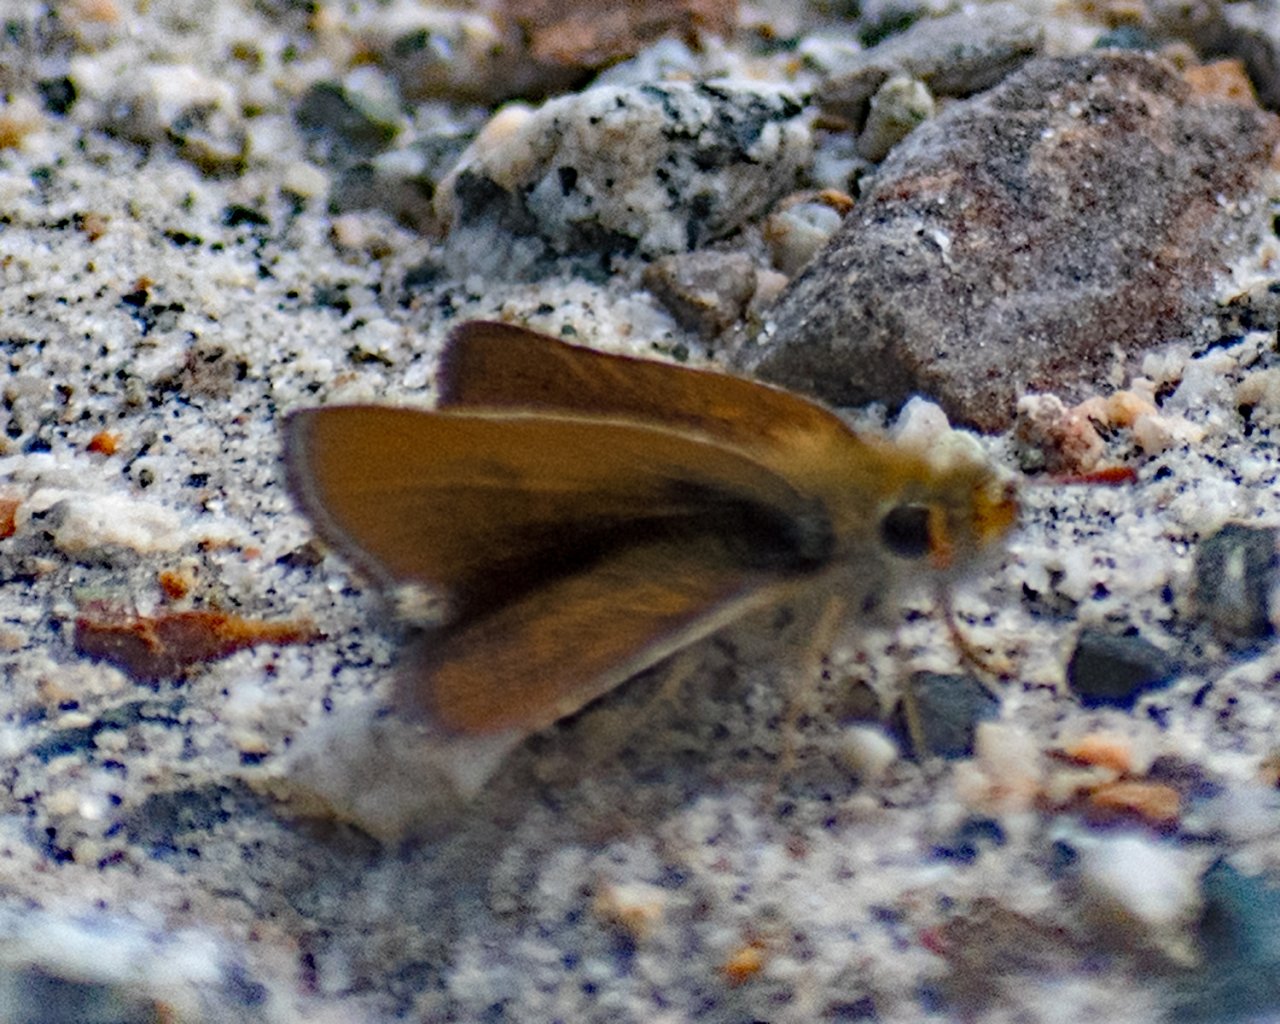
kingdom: Animalia
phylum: Arthropoda
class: Insecta
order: Lepidoptera
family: Hesperiidae
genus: Oarisma
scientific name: Oarisma garita
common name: Garita Skipperling
